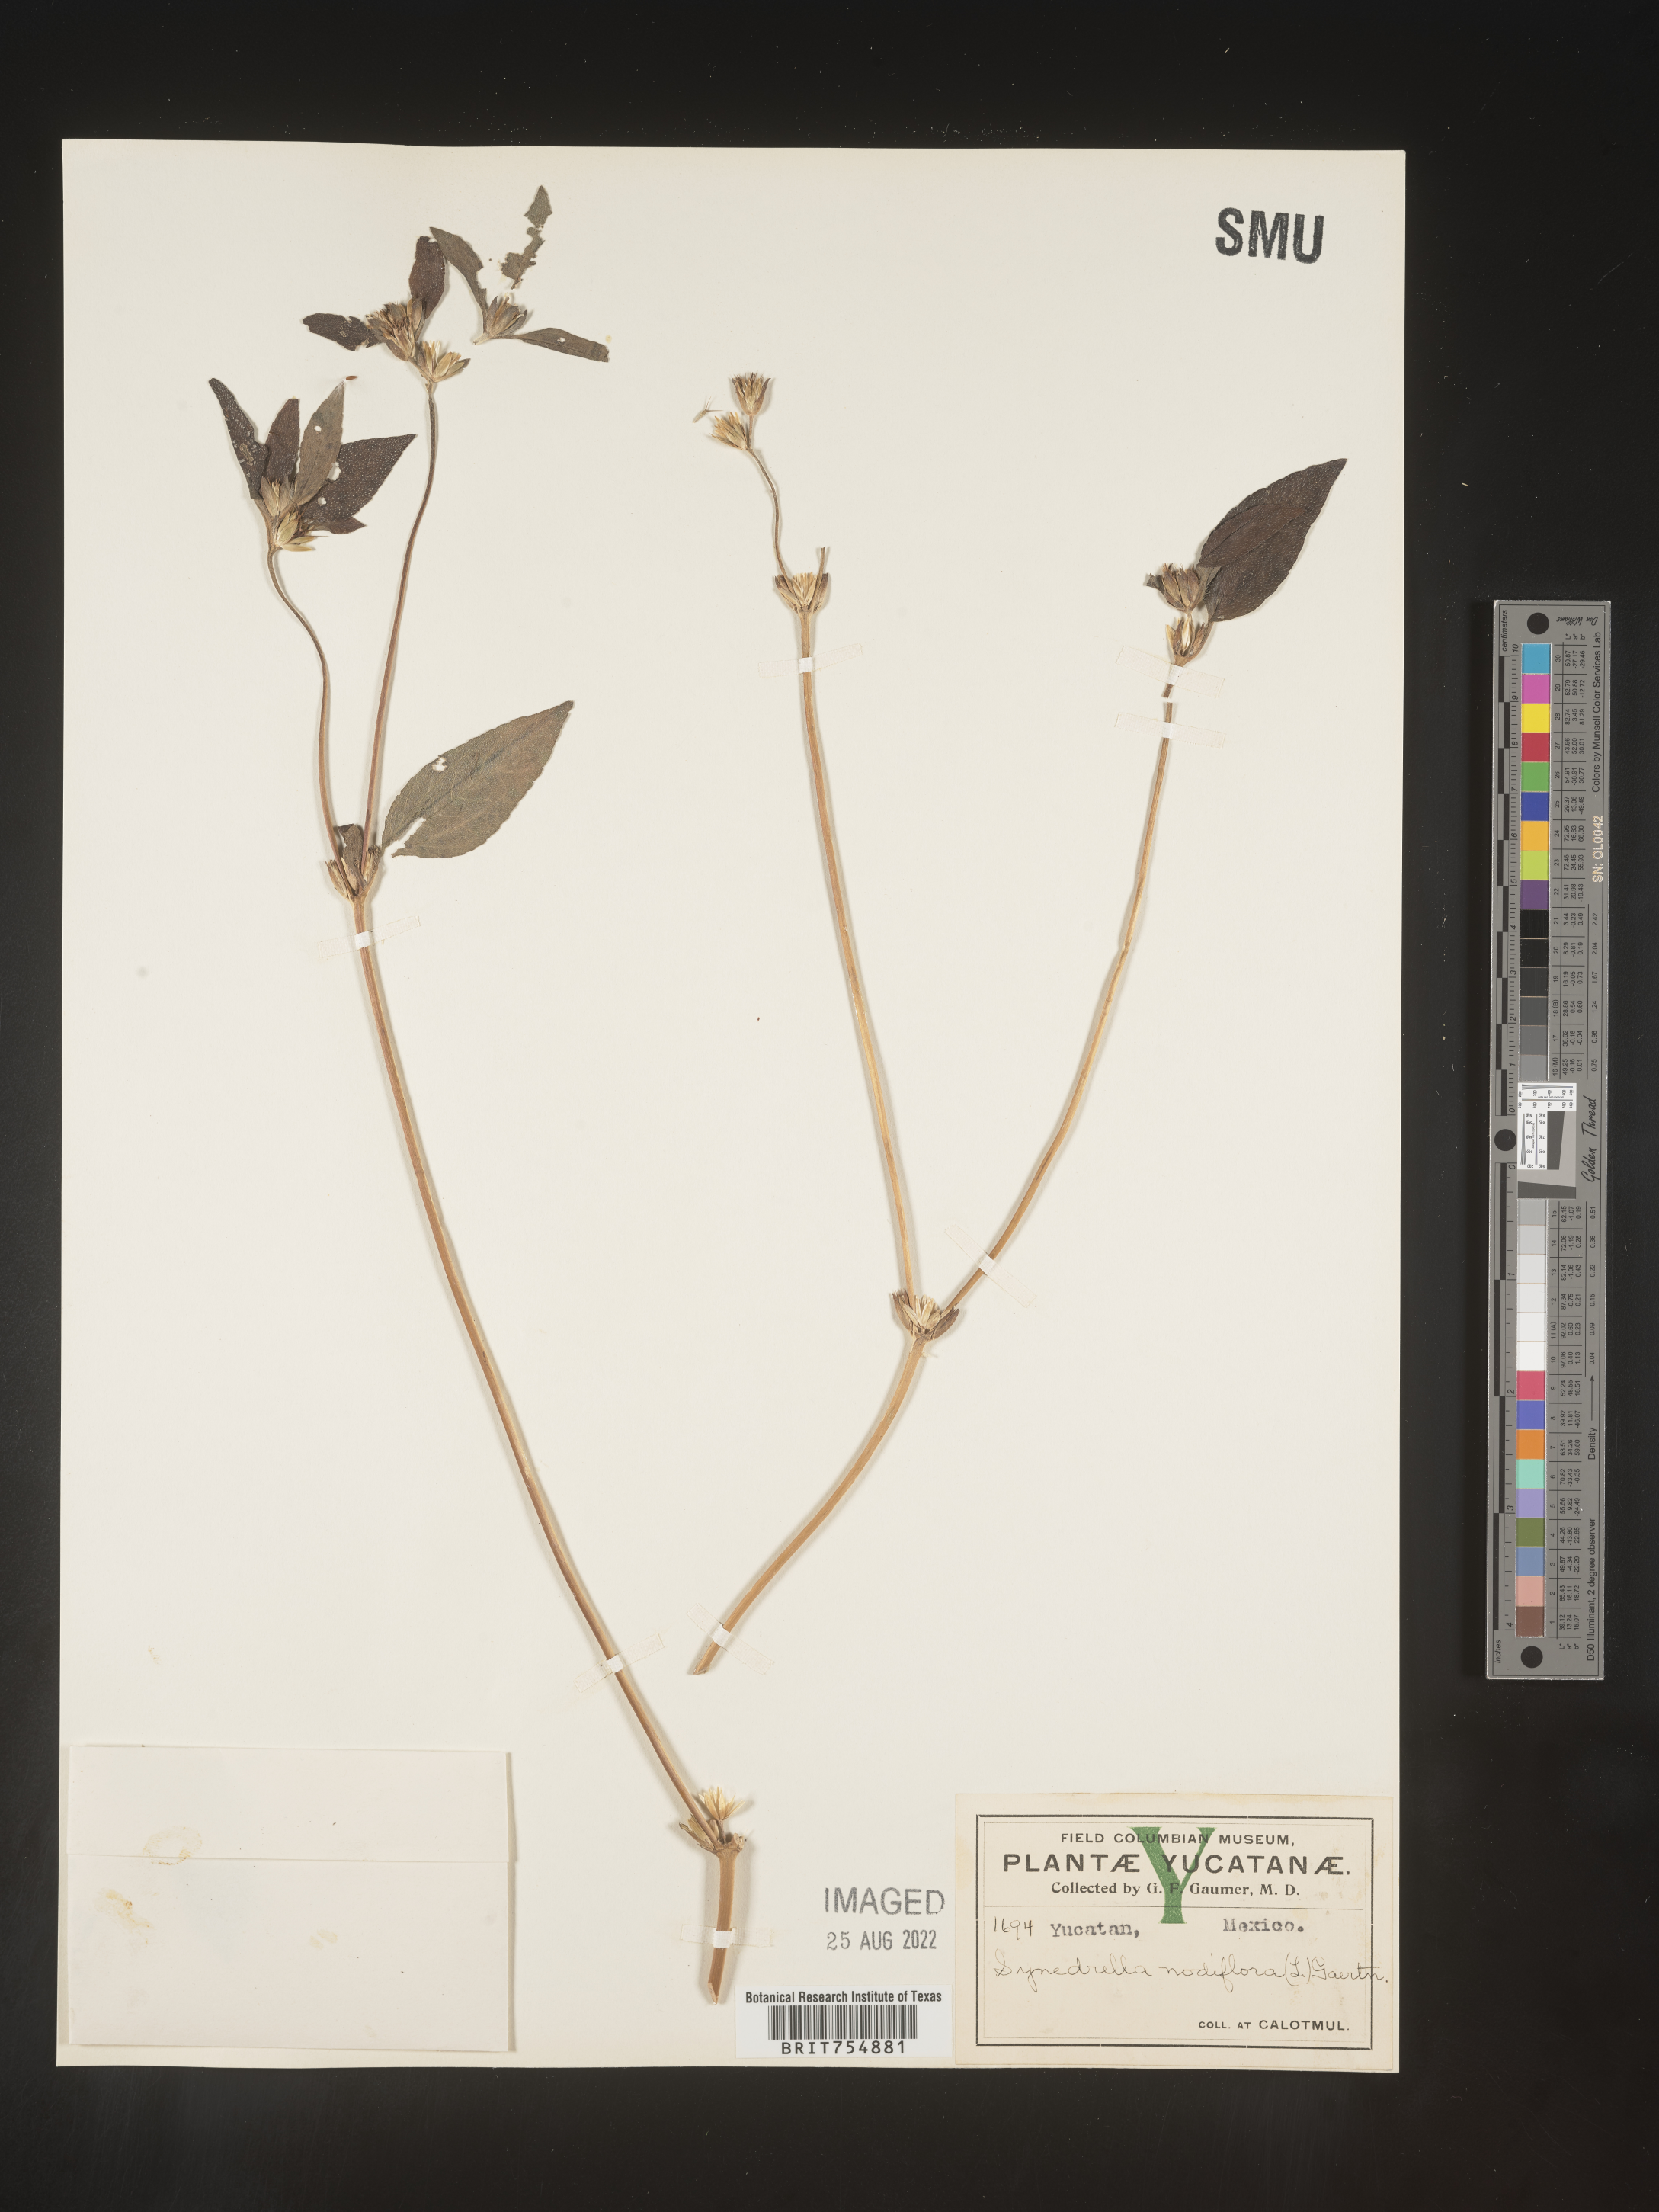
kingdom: Plantae
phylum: Tracheophyta
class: Magnoliopsida
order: Asterales
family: Asteraceae
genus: Synedrella
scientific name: Synedrella
